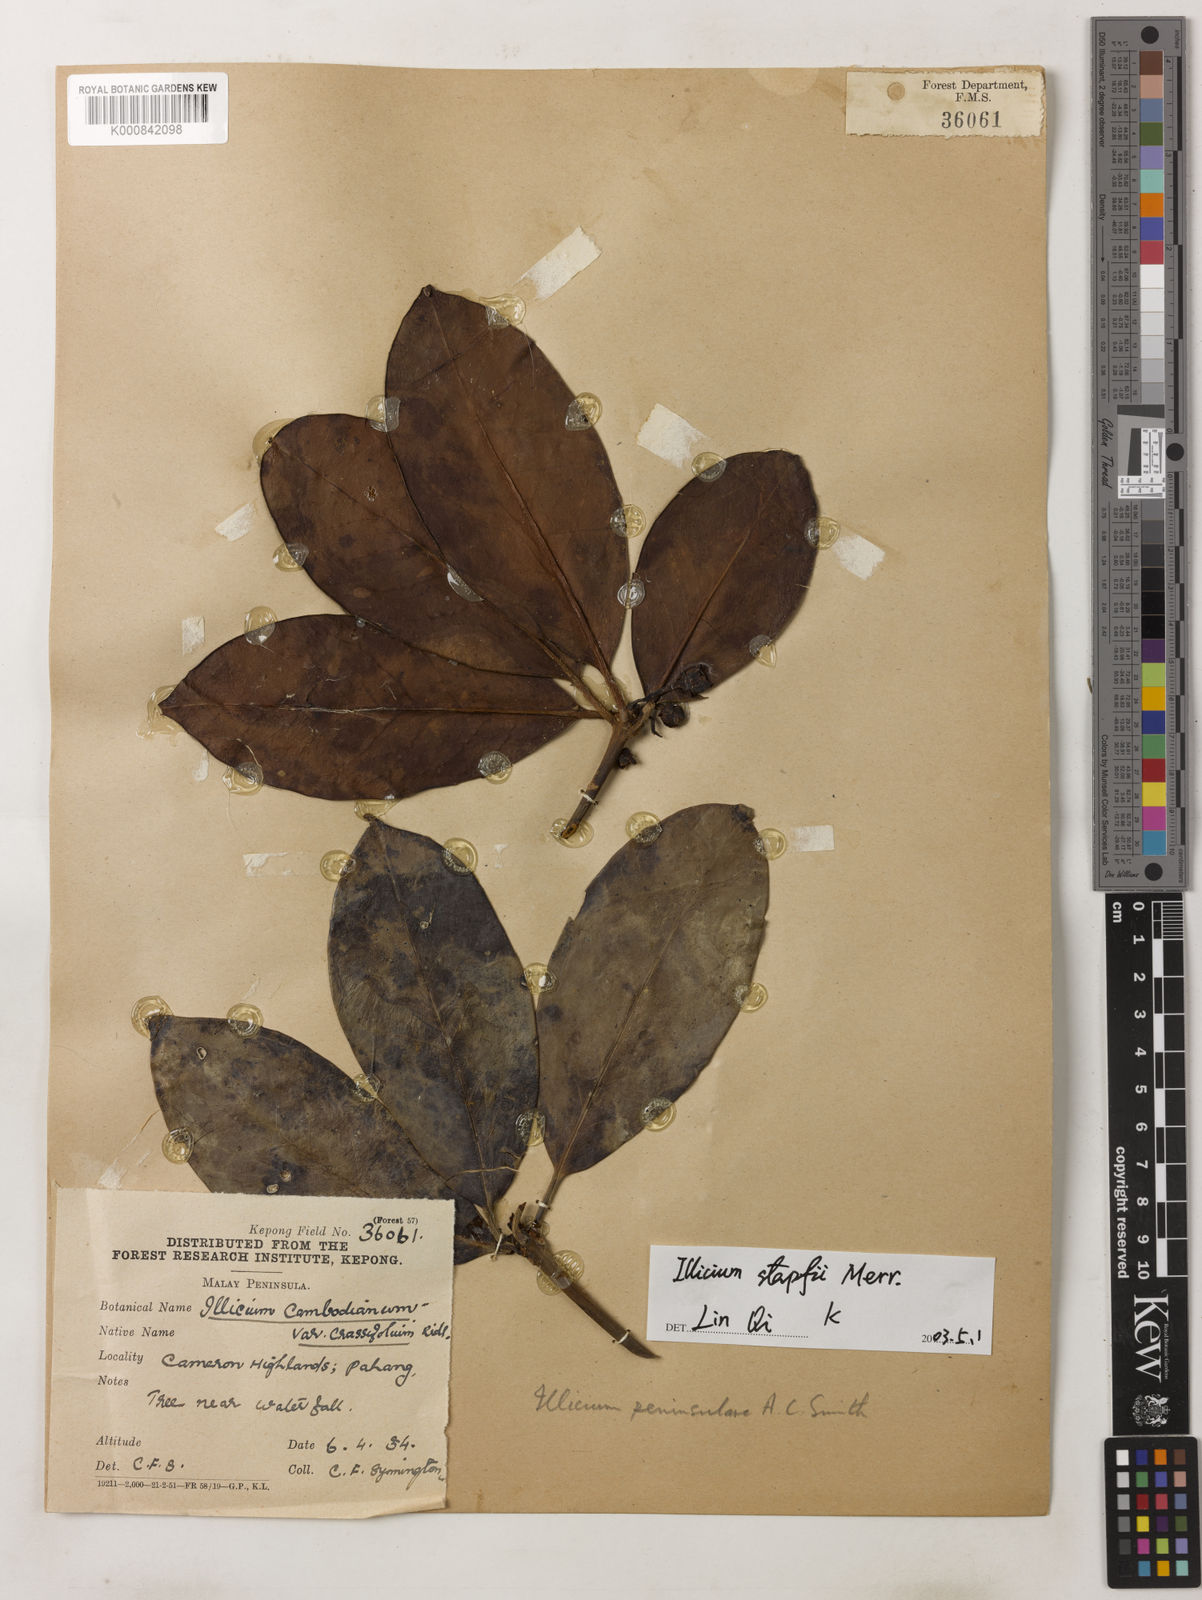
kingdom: Plantae
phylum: Tracheophyta
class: Magnoliopsida
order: Austrobaileyales
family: Schisandraceae
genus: Illicium
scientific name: Illicium stapfii
